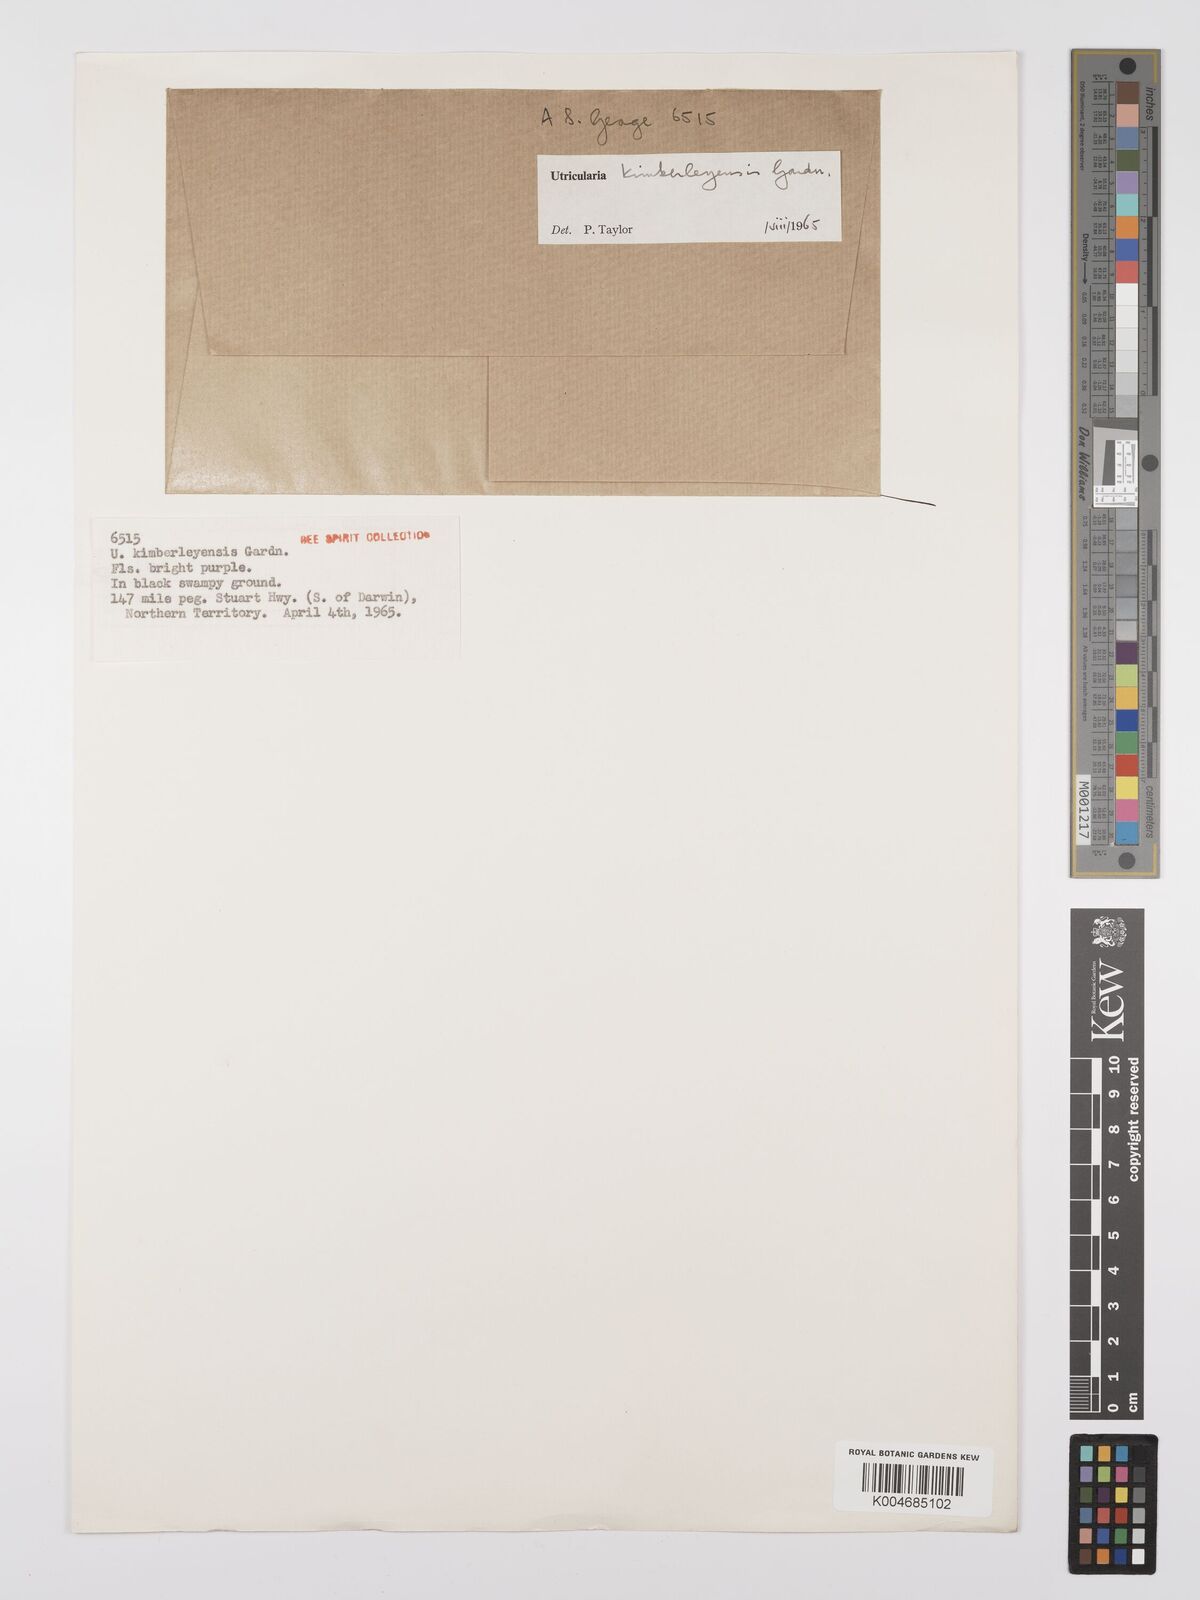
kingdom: Plantae
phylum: Tracheophyta
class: Magnoliopsida
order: Lamiales
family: Lentibulariaceae
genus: Utricularia
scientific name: Utricularia kimberleyensis
